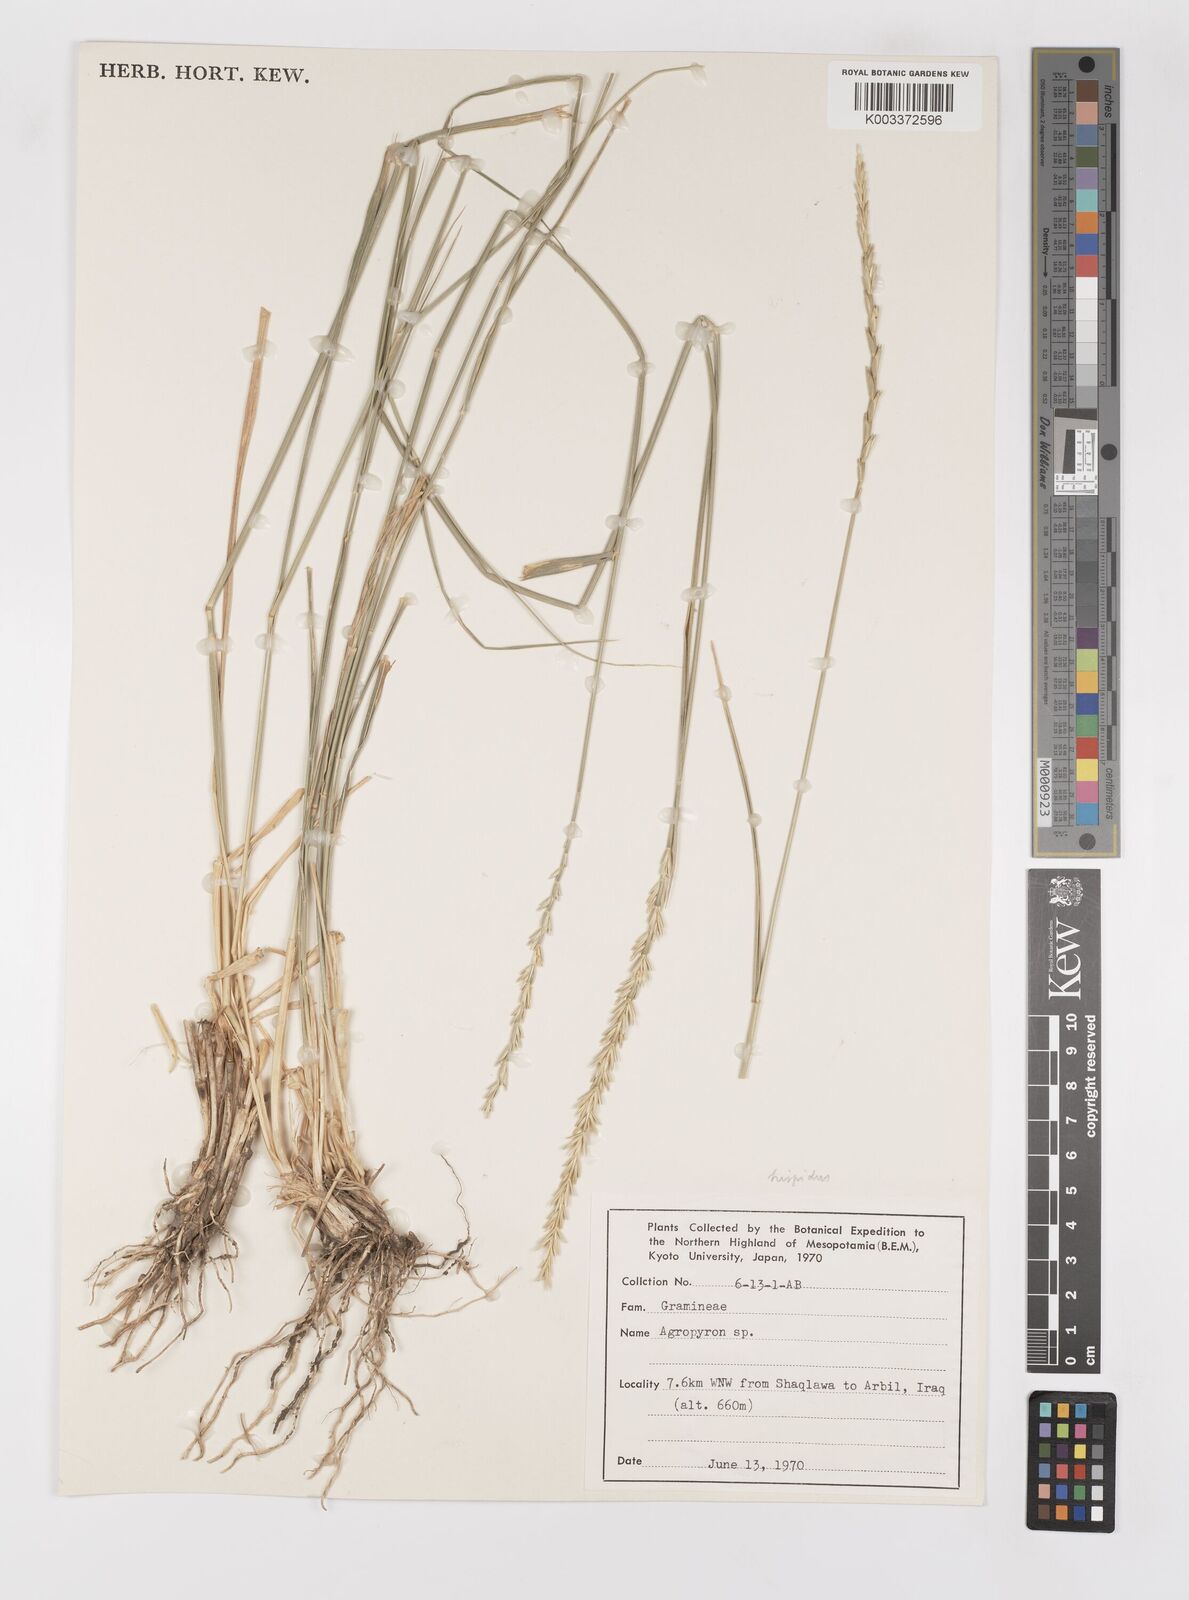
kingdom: Plantae
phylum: Tracheophyta
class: Liliopsida
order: Poales
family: Poaceae
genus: Elymus
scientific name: Elymus
